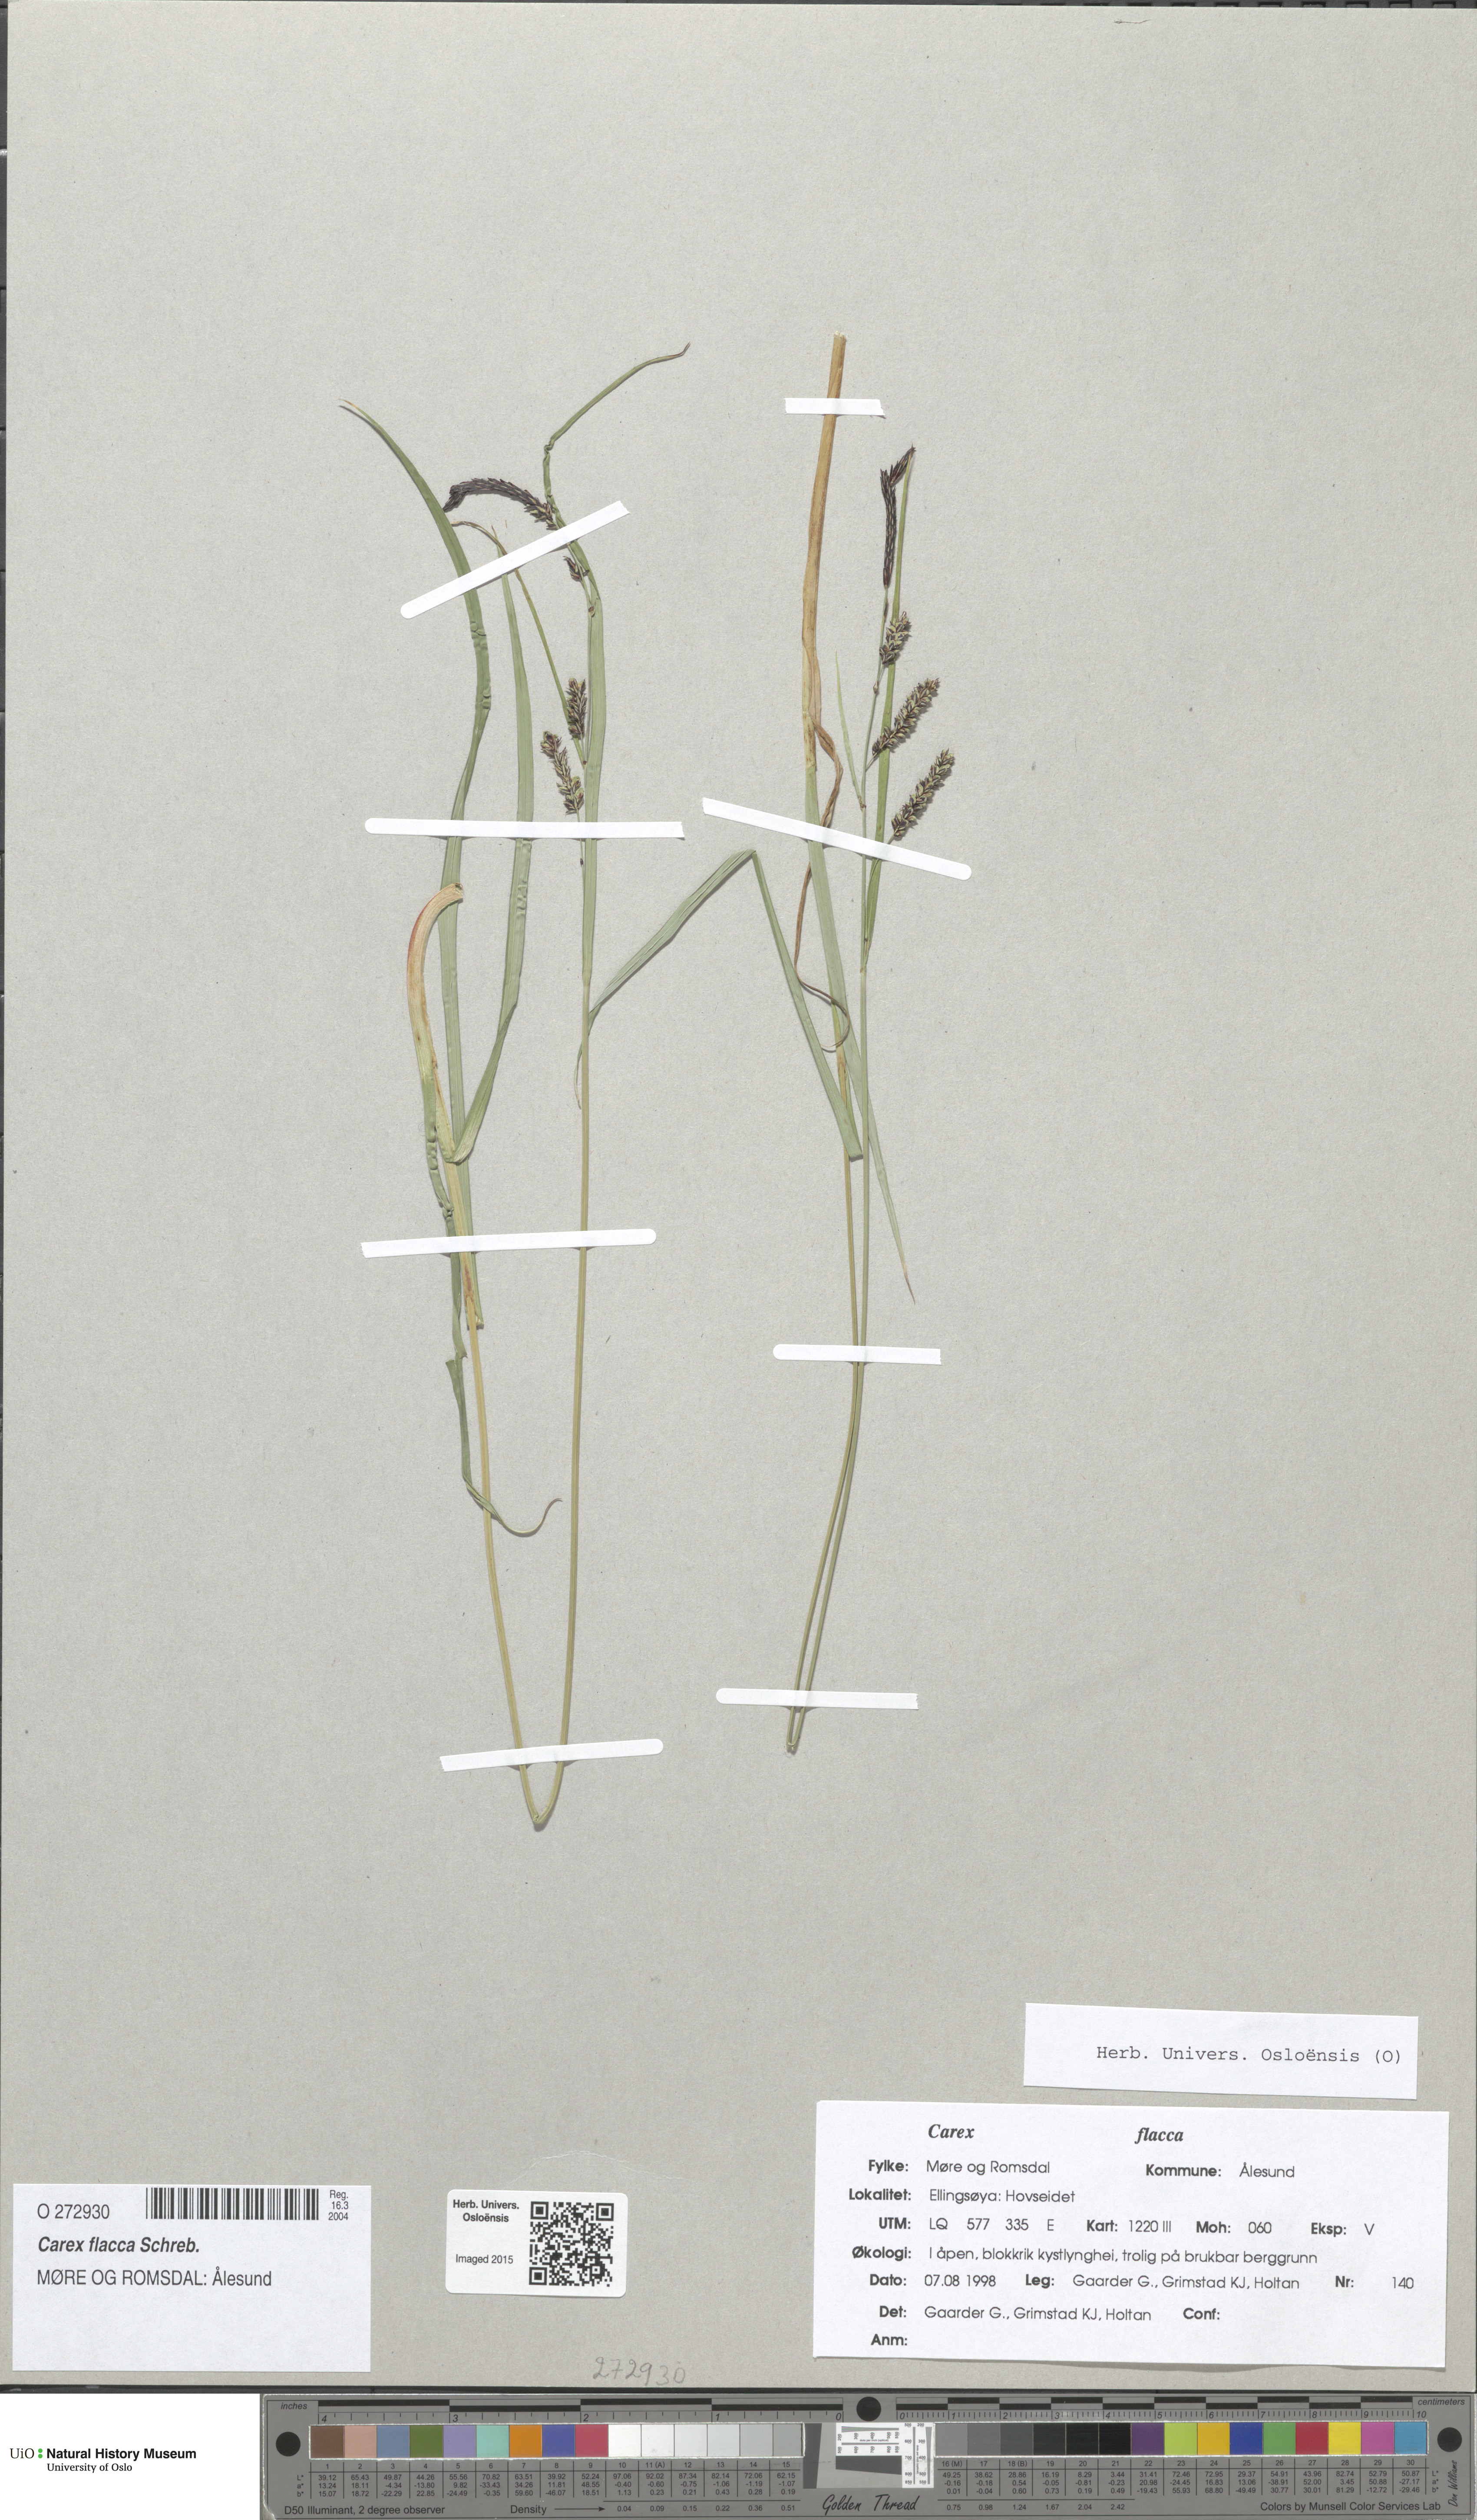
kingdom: Plantae
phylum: Tracheophyta
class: Liliopsida
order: Poales
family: Cyperaceae
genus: Carex
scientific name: Carex flacca
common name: Glaucous sedge
